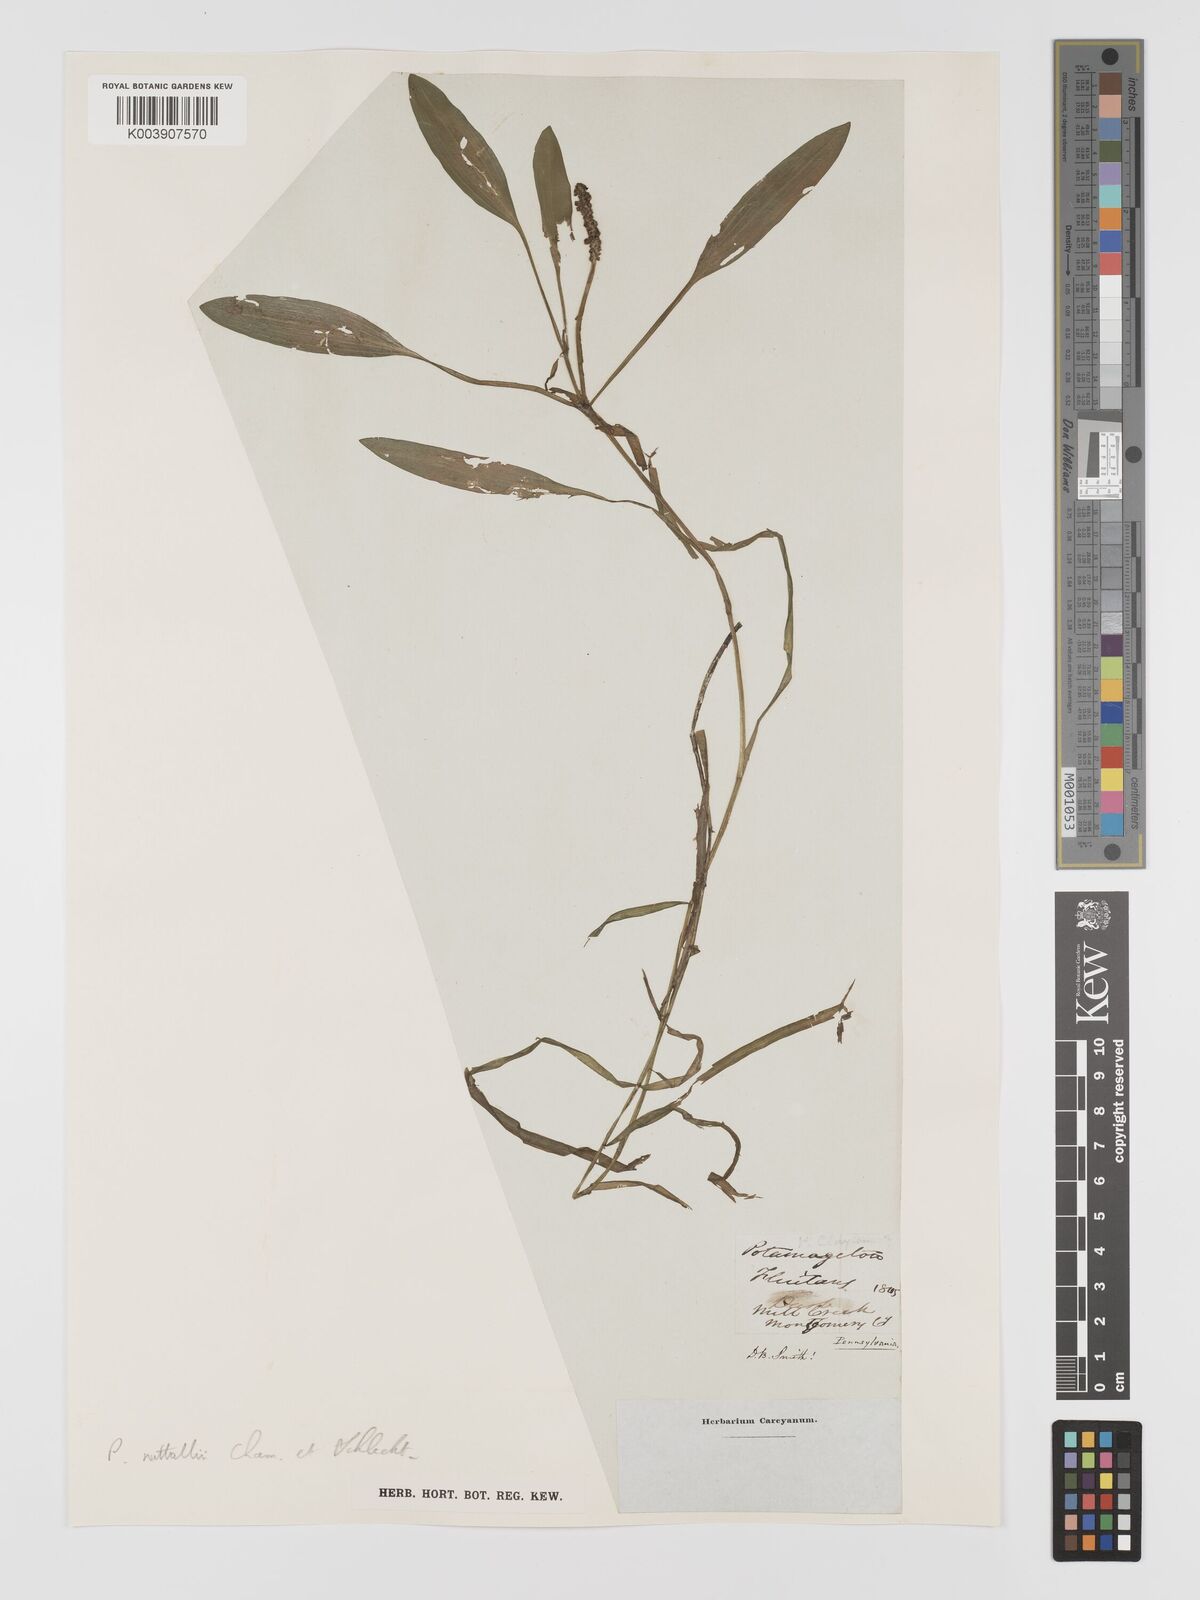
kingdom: Plantae
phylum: Tracheophyta
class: Liliopsida
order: Alismatales
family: Potamogetonaceae
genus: Potamogeton
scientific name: Potamogeton epihydrus
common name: American pondweed
